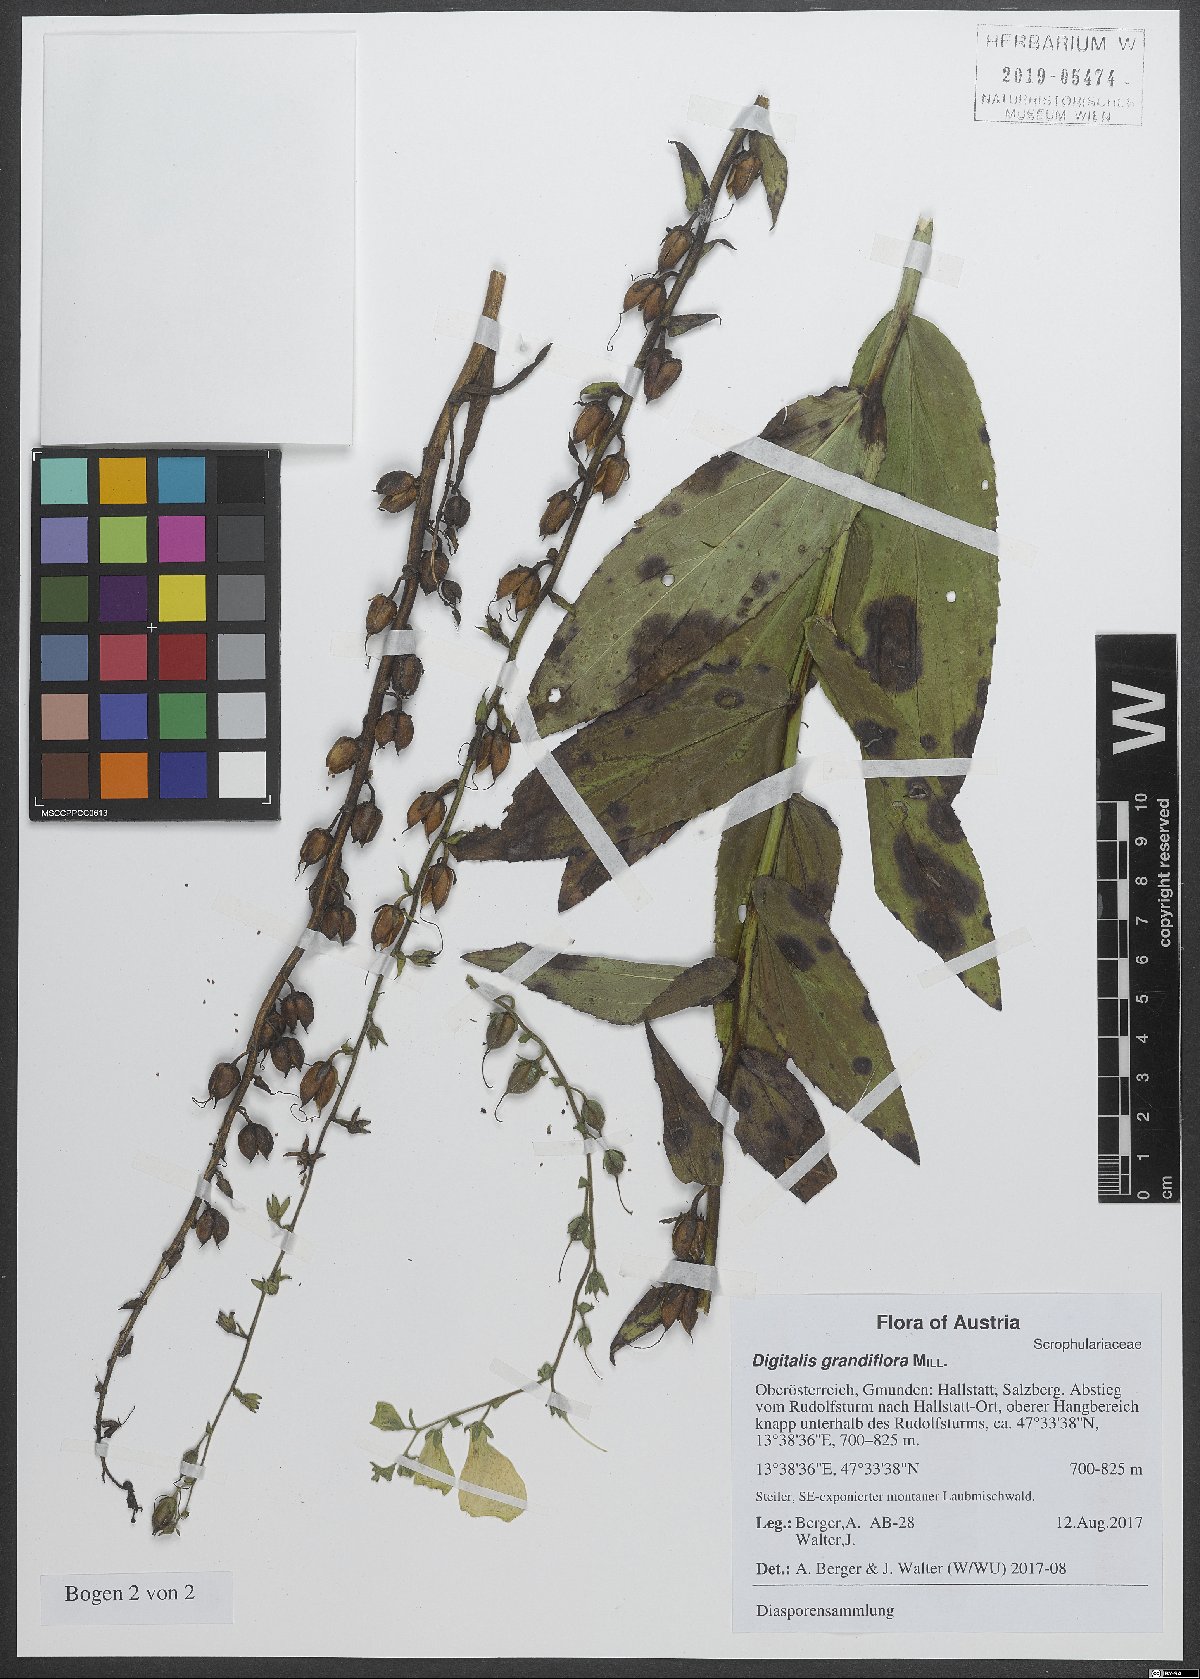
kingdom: Plantae
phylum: Tracheophyta
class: Magnoliopsida
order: Lamiales
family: Plantaginaceae
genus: Digitalis
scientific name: Digitalis grandiflora
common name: Yellow foxglove
